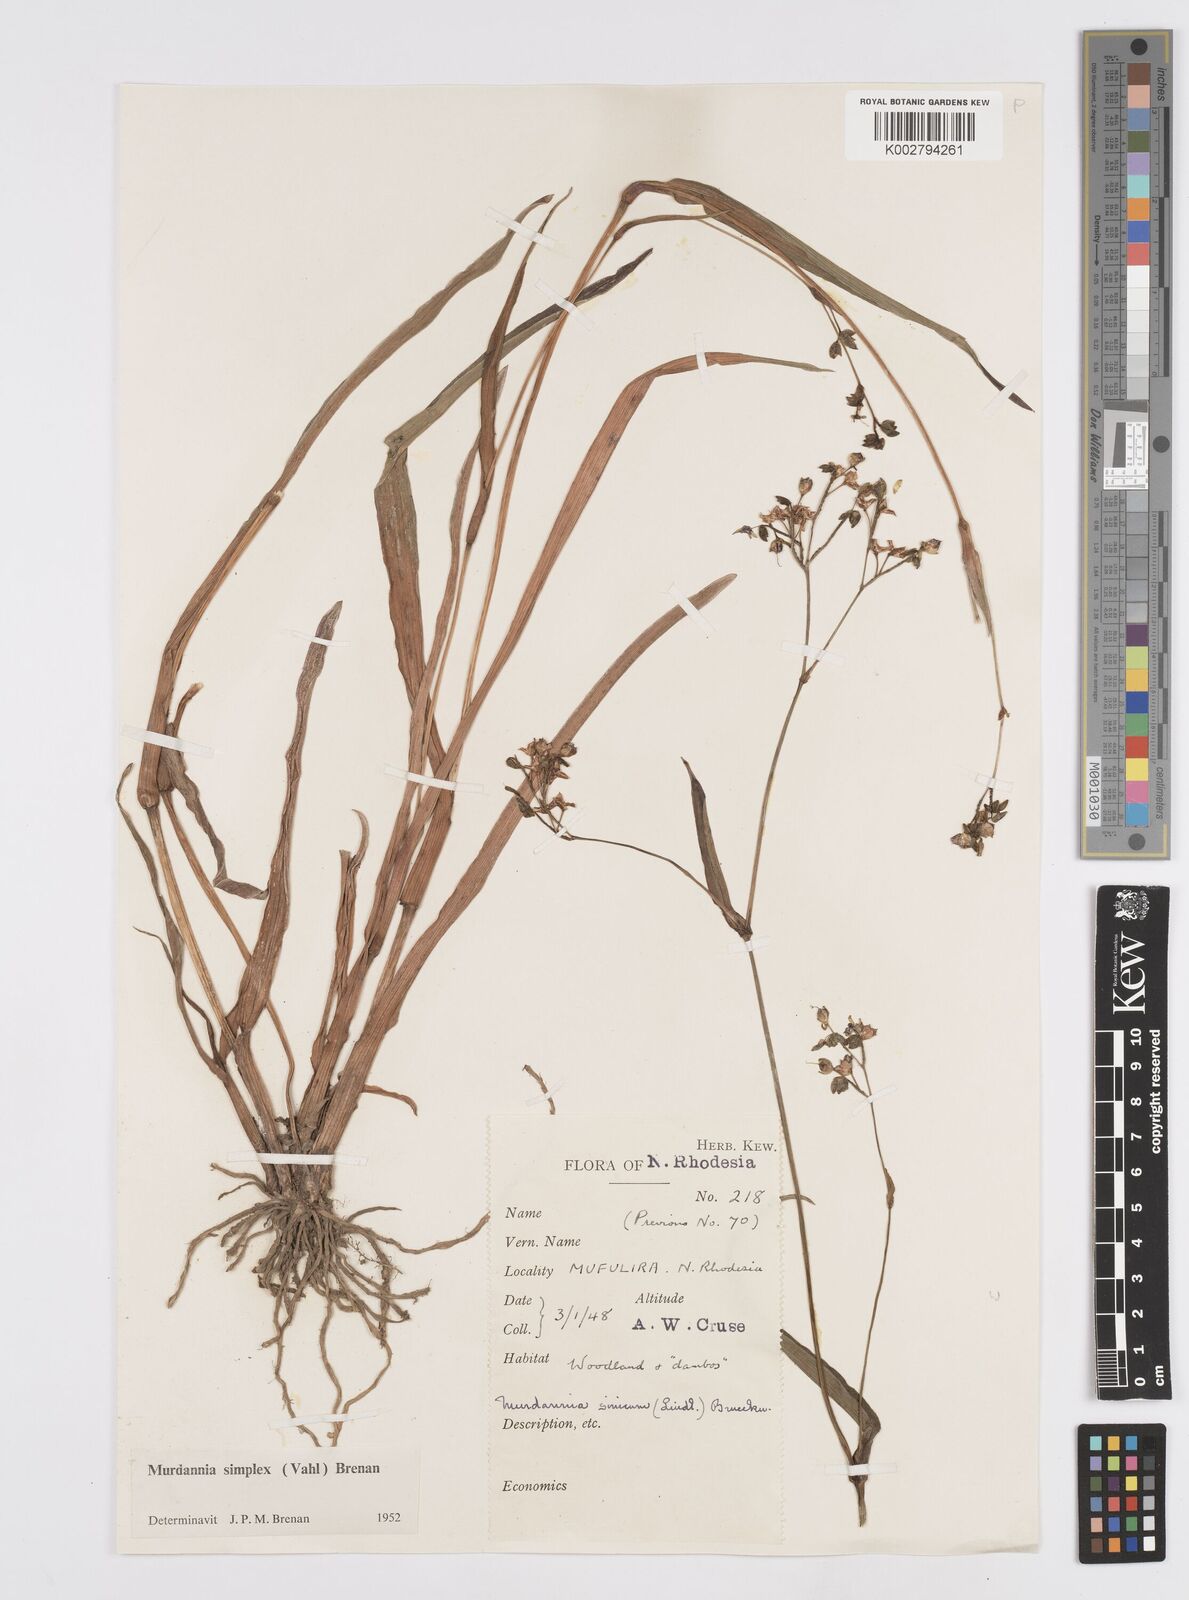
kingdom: Plantae
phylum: Tracheophyta
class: Liliopsida
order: Commelinales
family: Commelinaceae
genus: Murdannia
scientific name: Murdannia simplex
